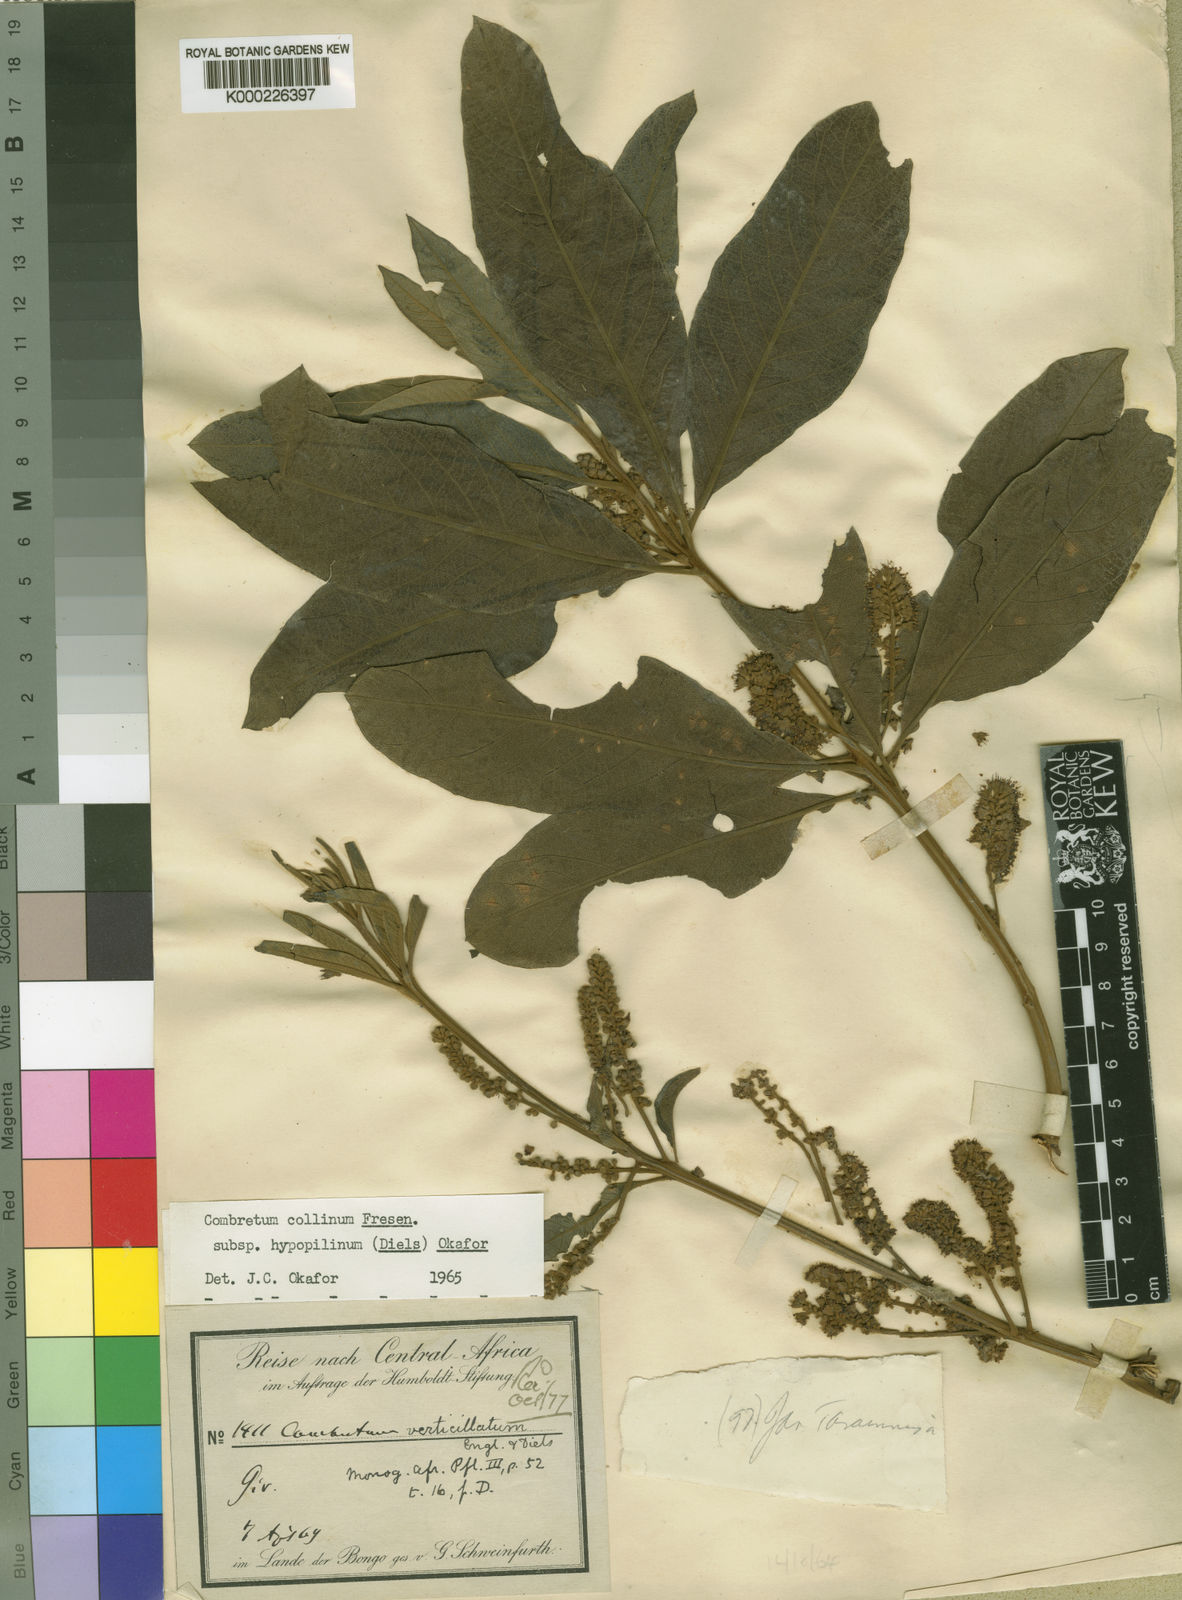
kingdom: Plantae
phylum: Tracheophyta
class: Magnoliopsida
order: Myrtales
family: Combretaceae
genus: Combretum
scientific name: Combretum collinum
